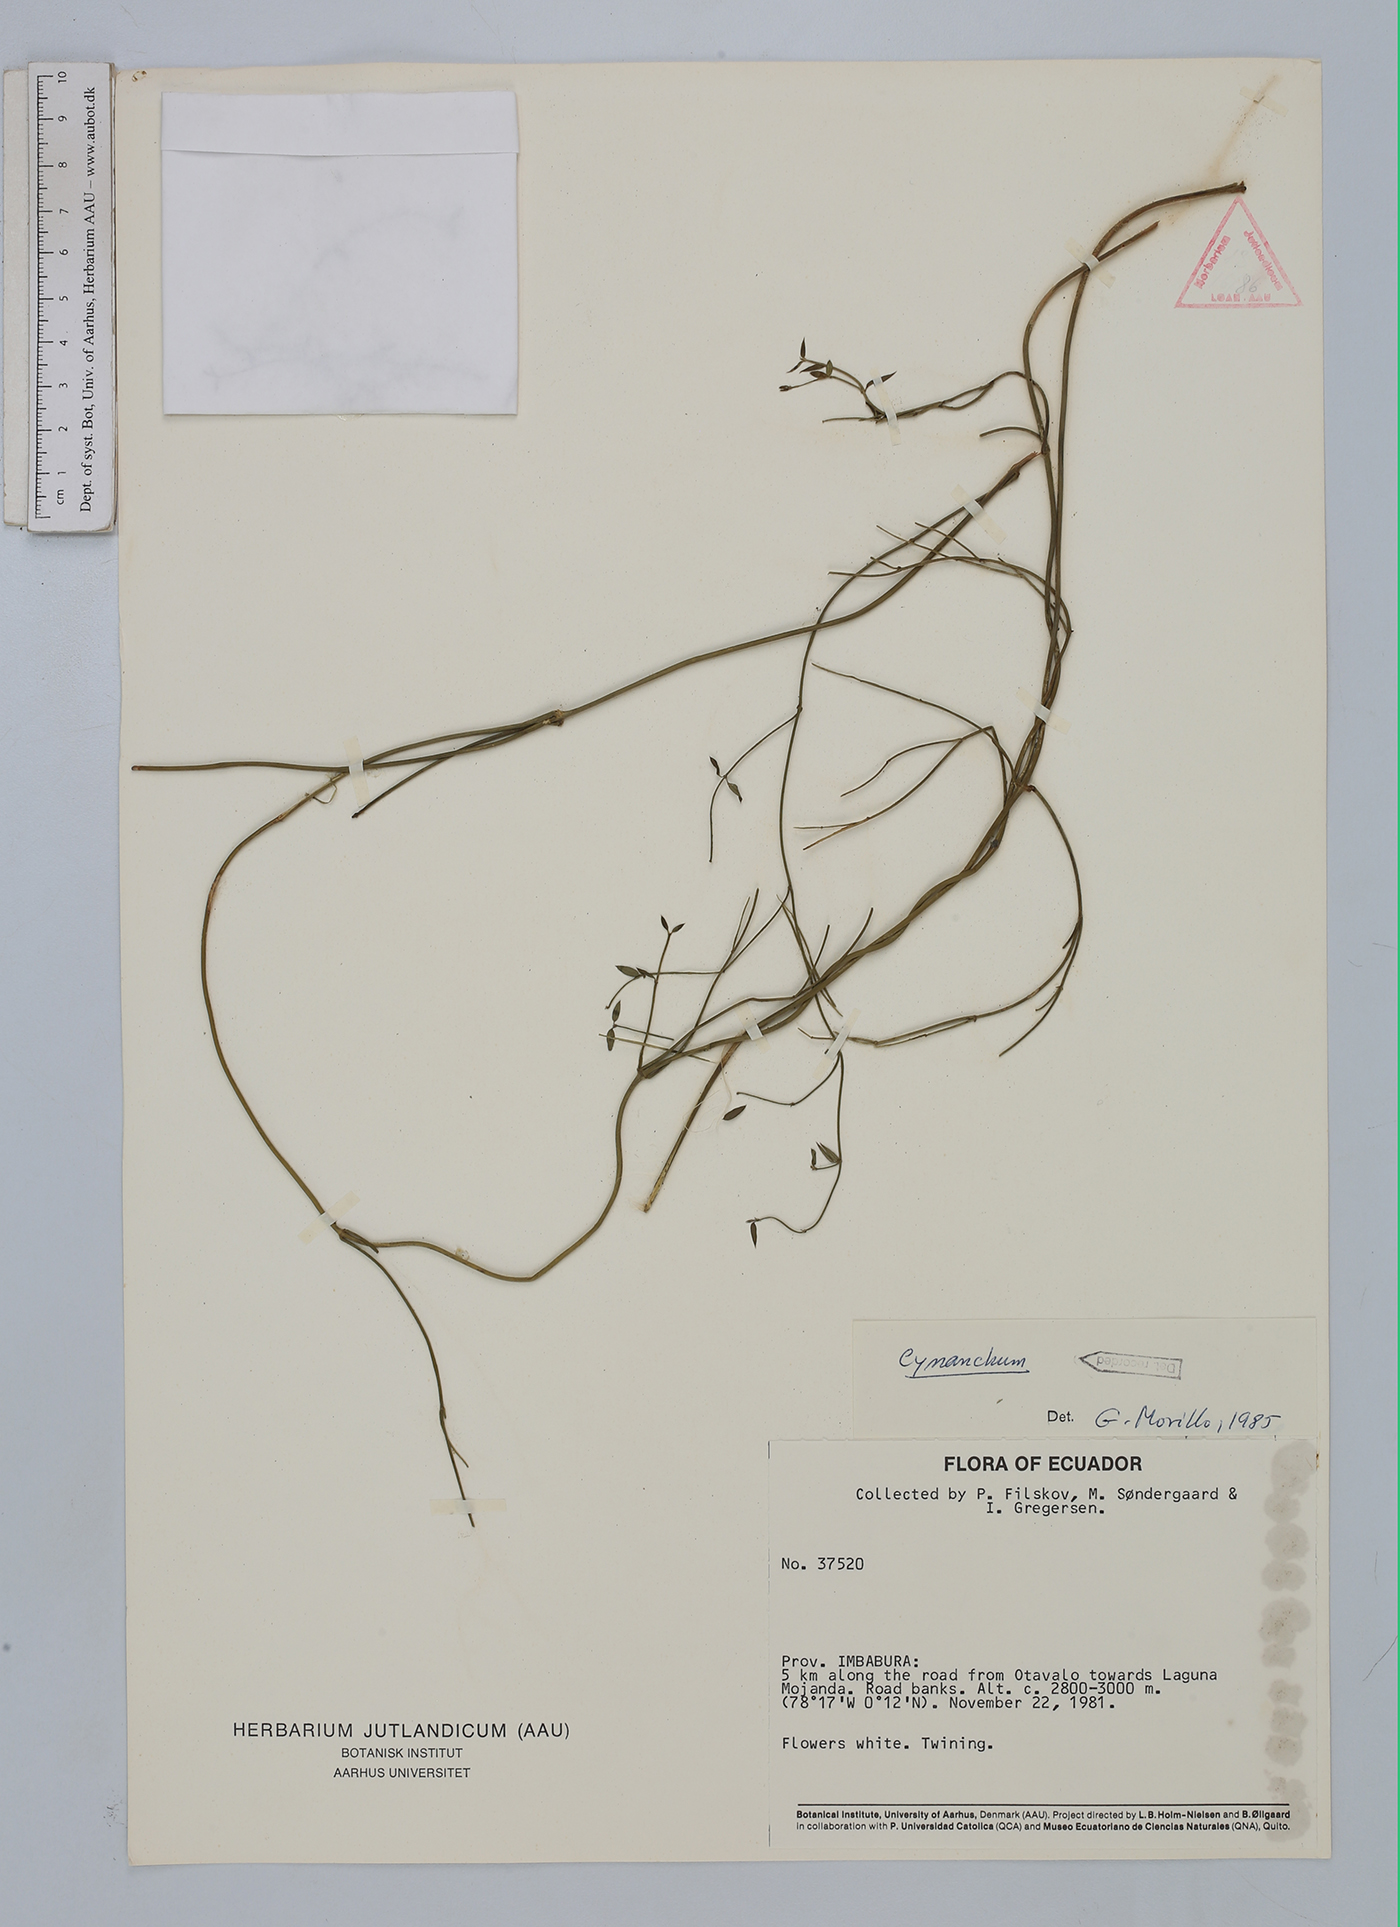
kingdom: Plantae
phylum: Tracheophyta
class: Magnoliopsida
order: Gentianales
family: Apocynaceae
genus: Cynanchum
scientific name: Cynanchum
